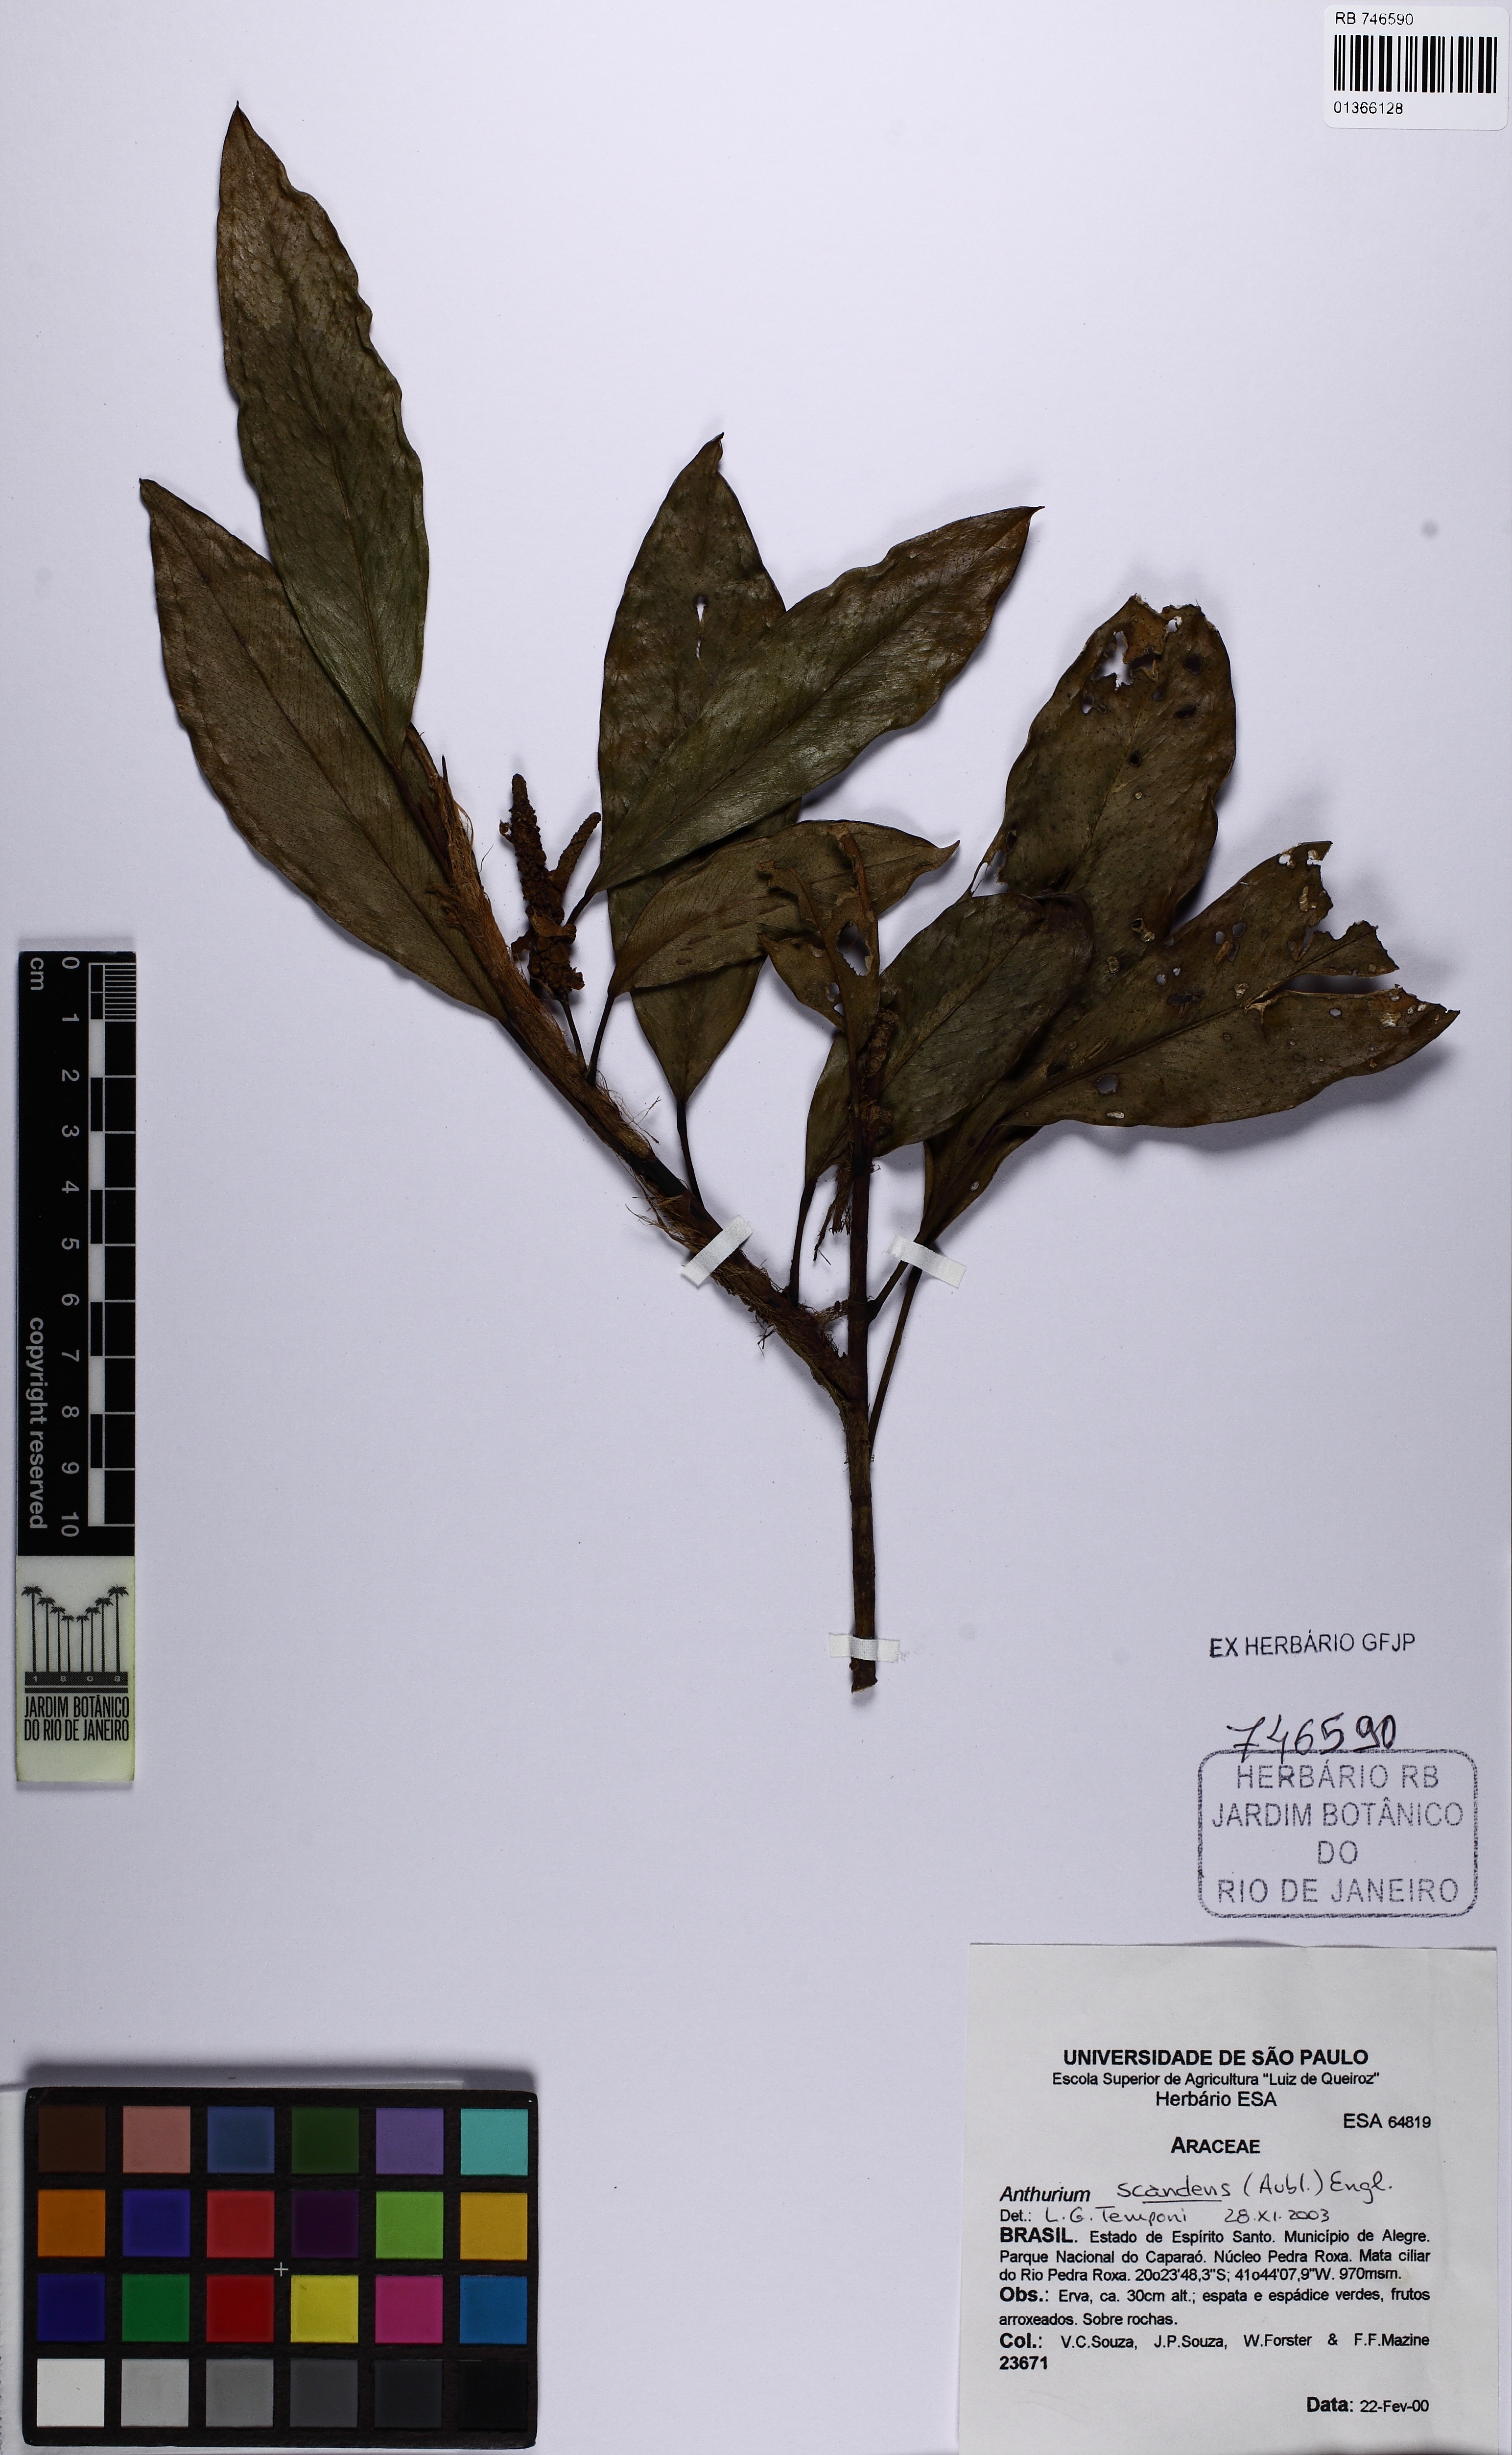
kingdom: Plantae
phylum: Tracheophyta
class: Liliopsida
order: Alismatales
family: Araceae
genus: Anthurium
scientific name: Anthurium scandens
